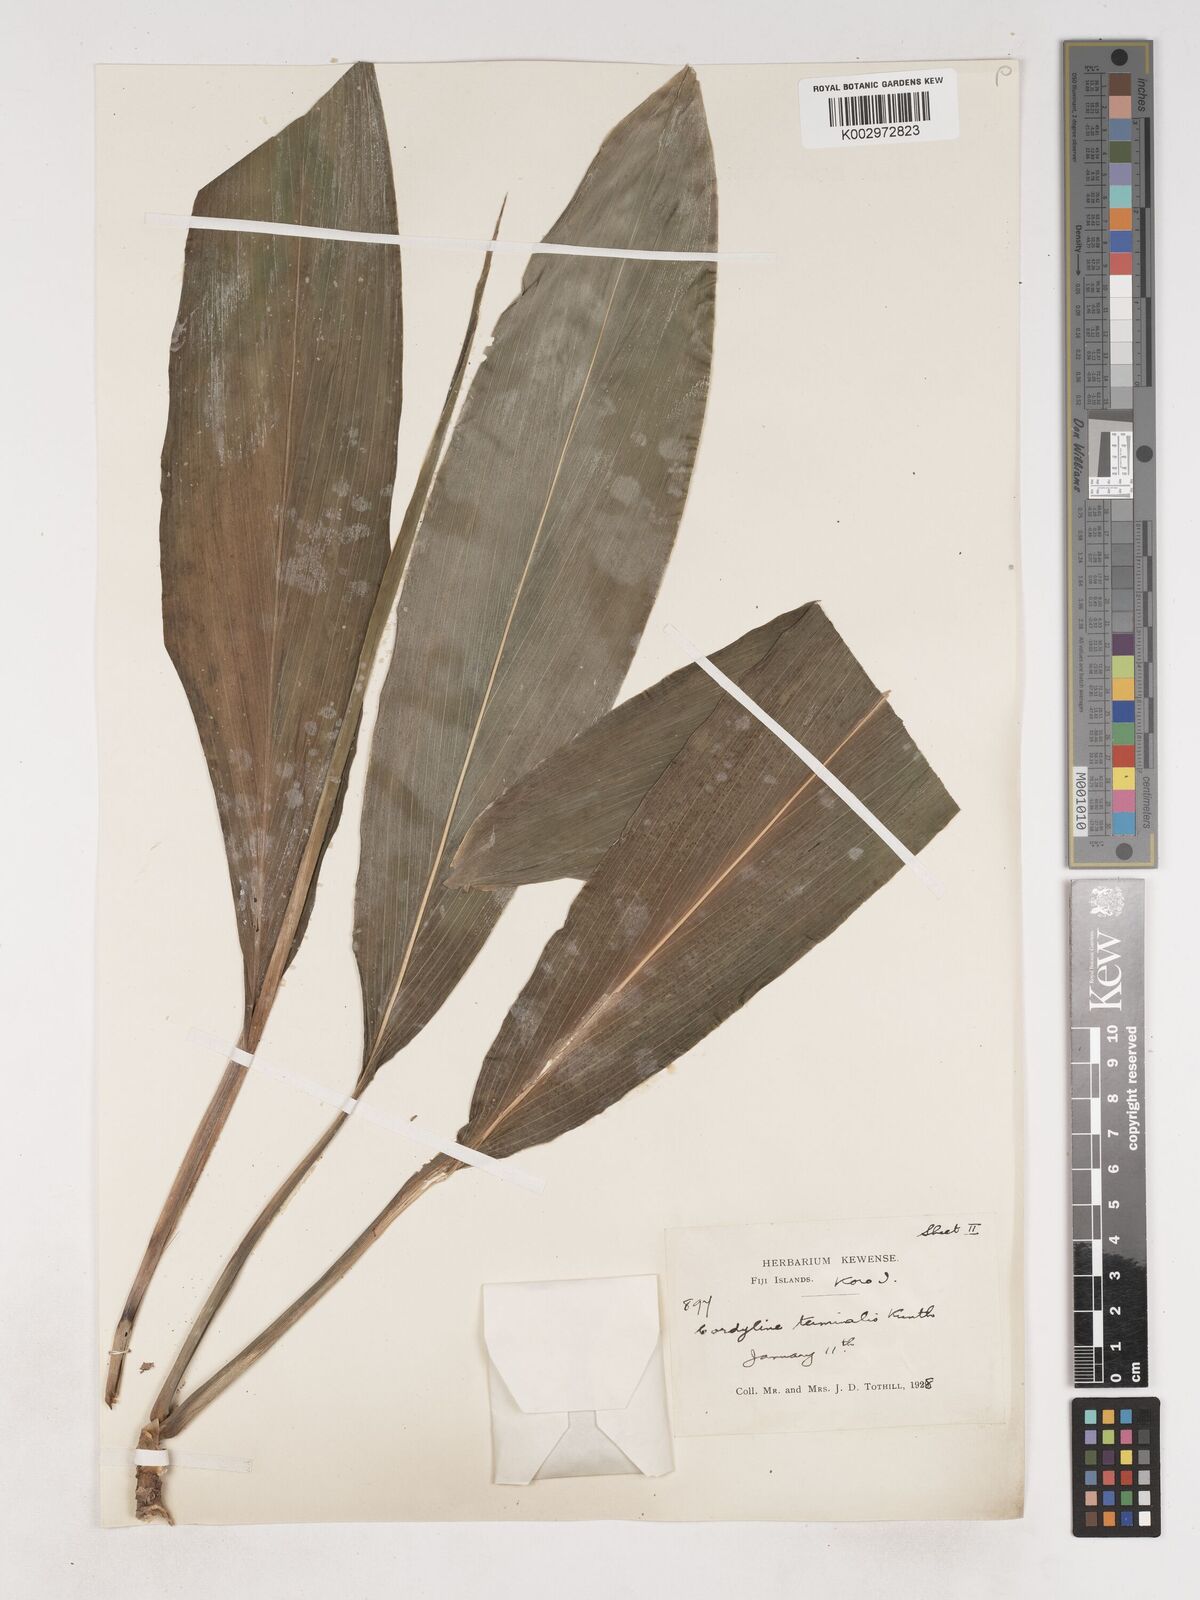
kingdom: Plantae
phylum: Tracheophyta
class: Liliopsida
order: Asparagales
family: Asparagaceae
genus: Cordyline
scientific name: Cordyline fruticosa
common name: Good-luck-plant
